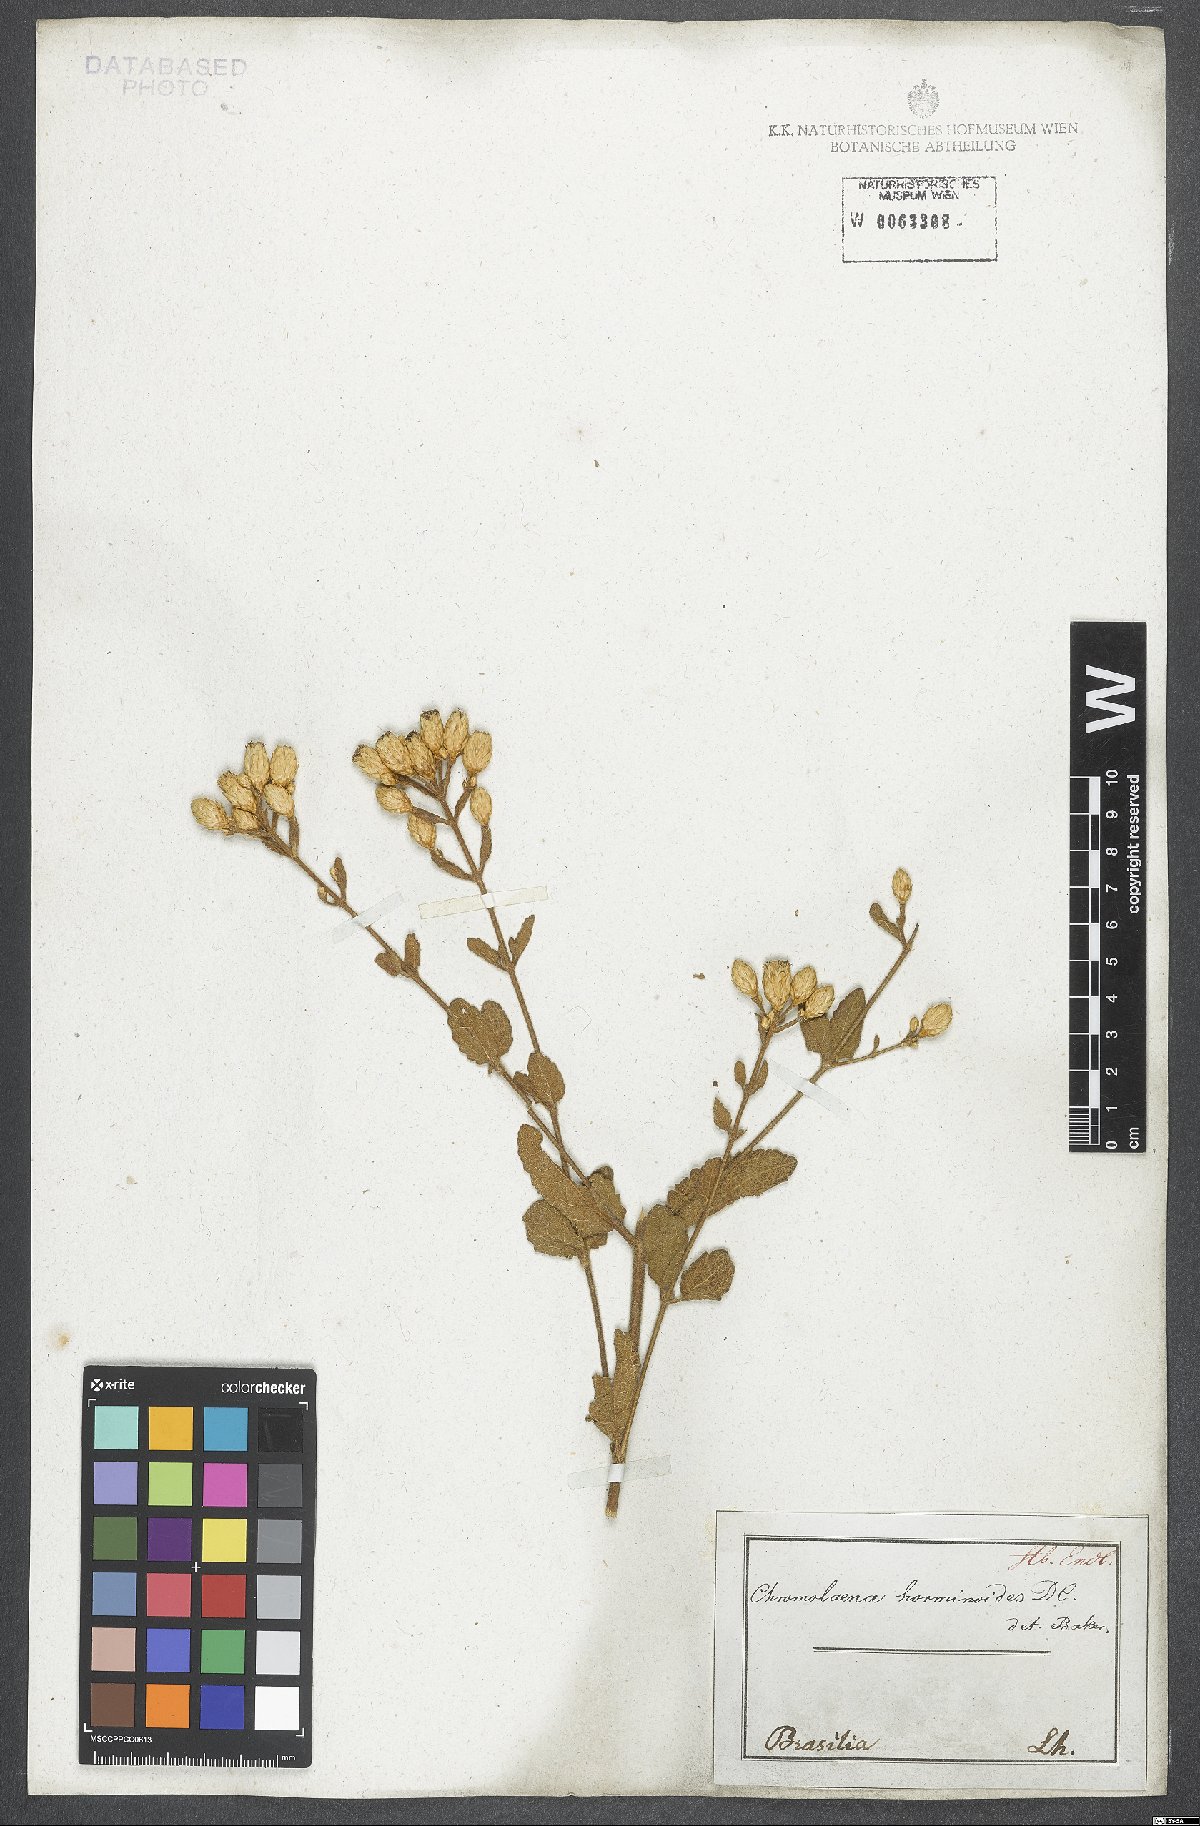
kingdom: Plantae
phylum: Tracheophyta
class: Magnoliopsida
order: Asterales
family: Asteraceae
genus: Chromolaena
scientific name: Chromolaena horminoides
